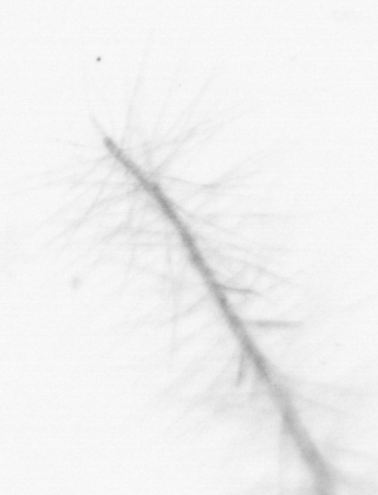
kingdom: Chromista
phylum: Ochrophyta
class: Bacillariophyceae
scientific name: Bacillariophyceae
